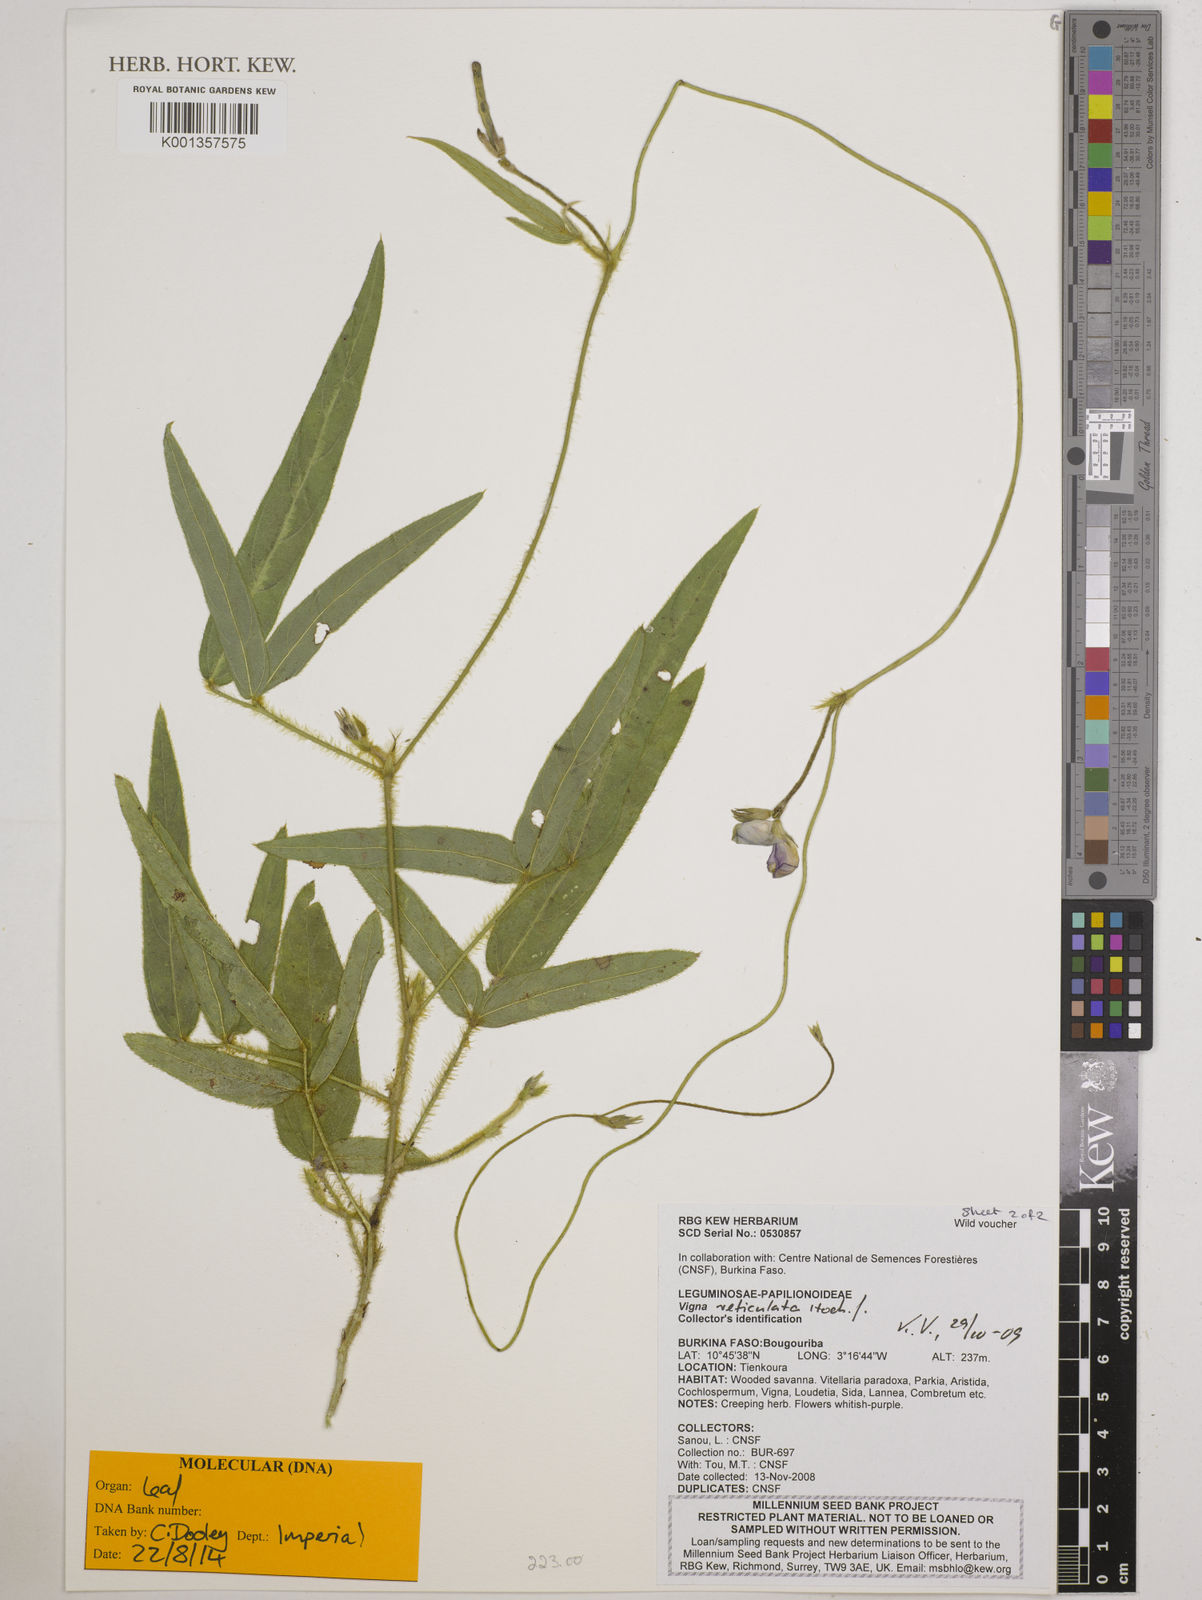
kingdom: Plantae
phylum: Tracheophyta
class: Magnoliopsida
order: Fabales
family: Fabaceae
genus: Vigna
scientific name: Vigna reticulata
